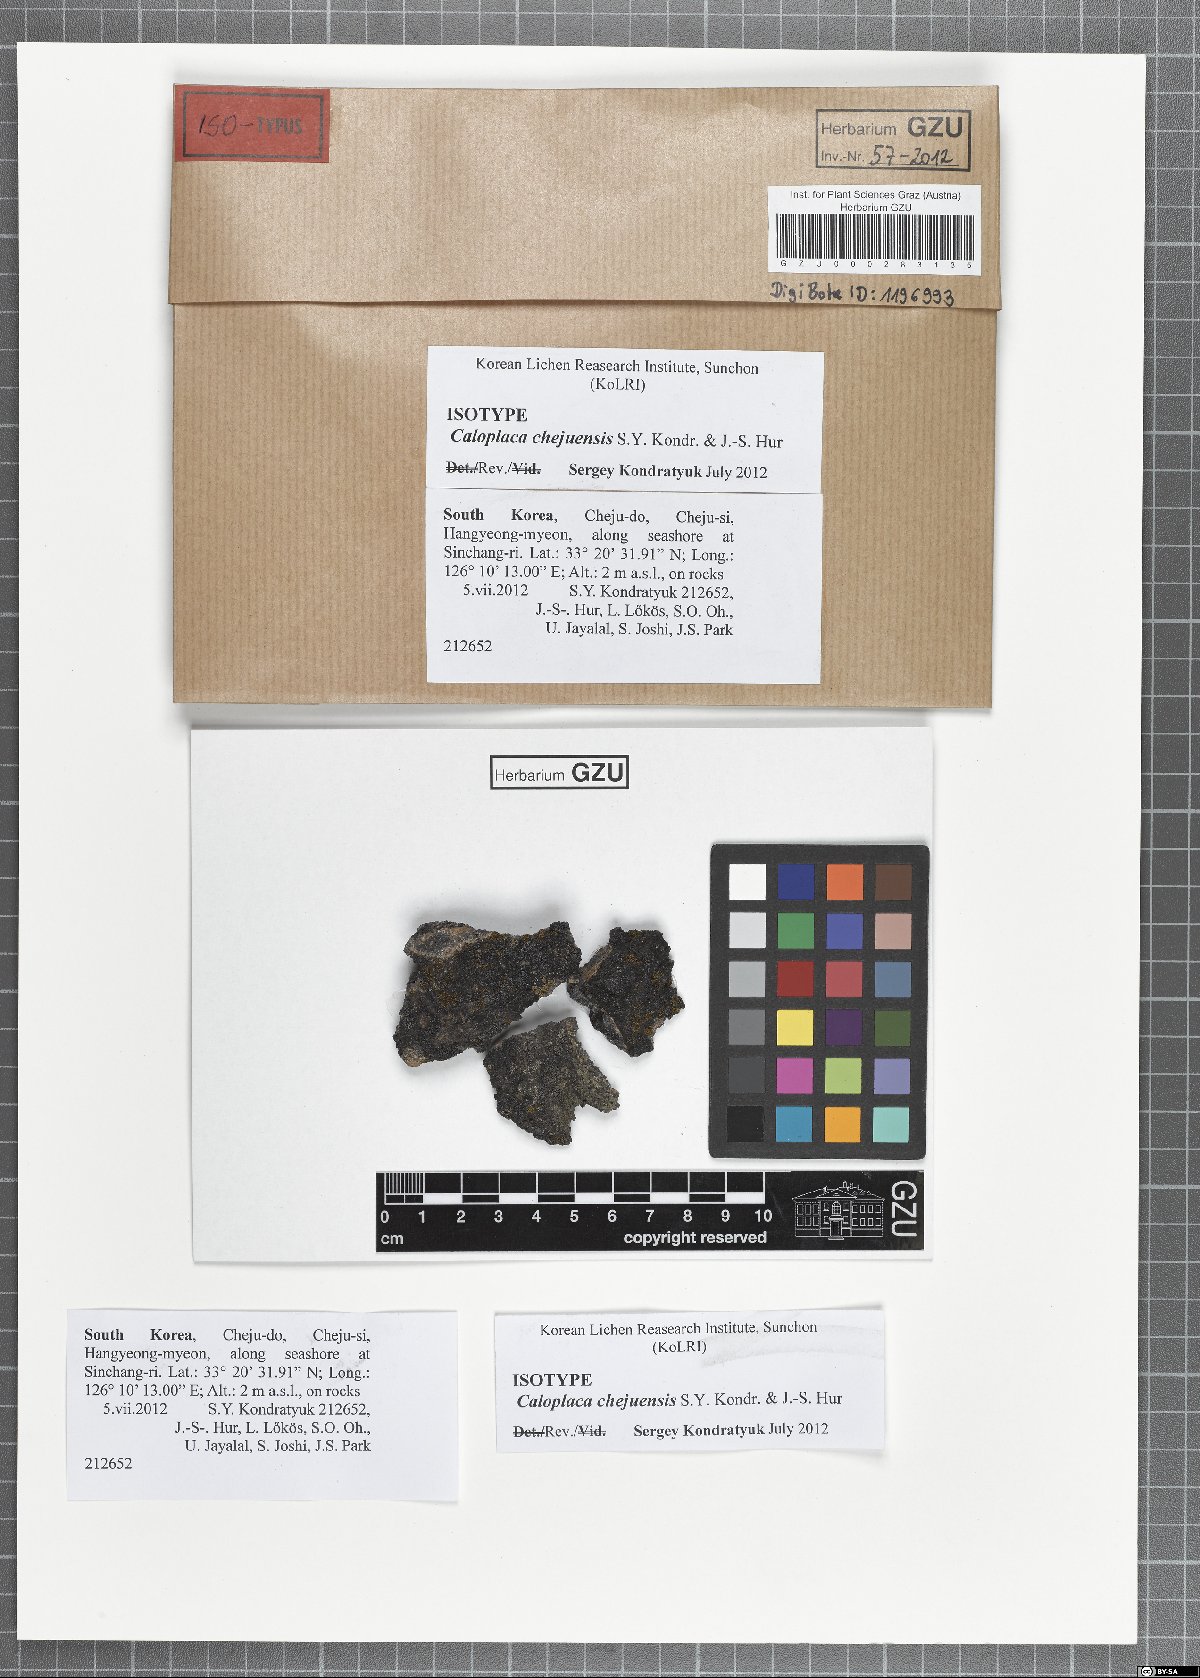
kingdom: Fungi
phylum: Ascomycota
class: Lecanoromycetes
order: Teloschistales
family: Teloschistaceae
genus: Orientophila
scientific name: Orientophila chejuensis
